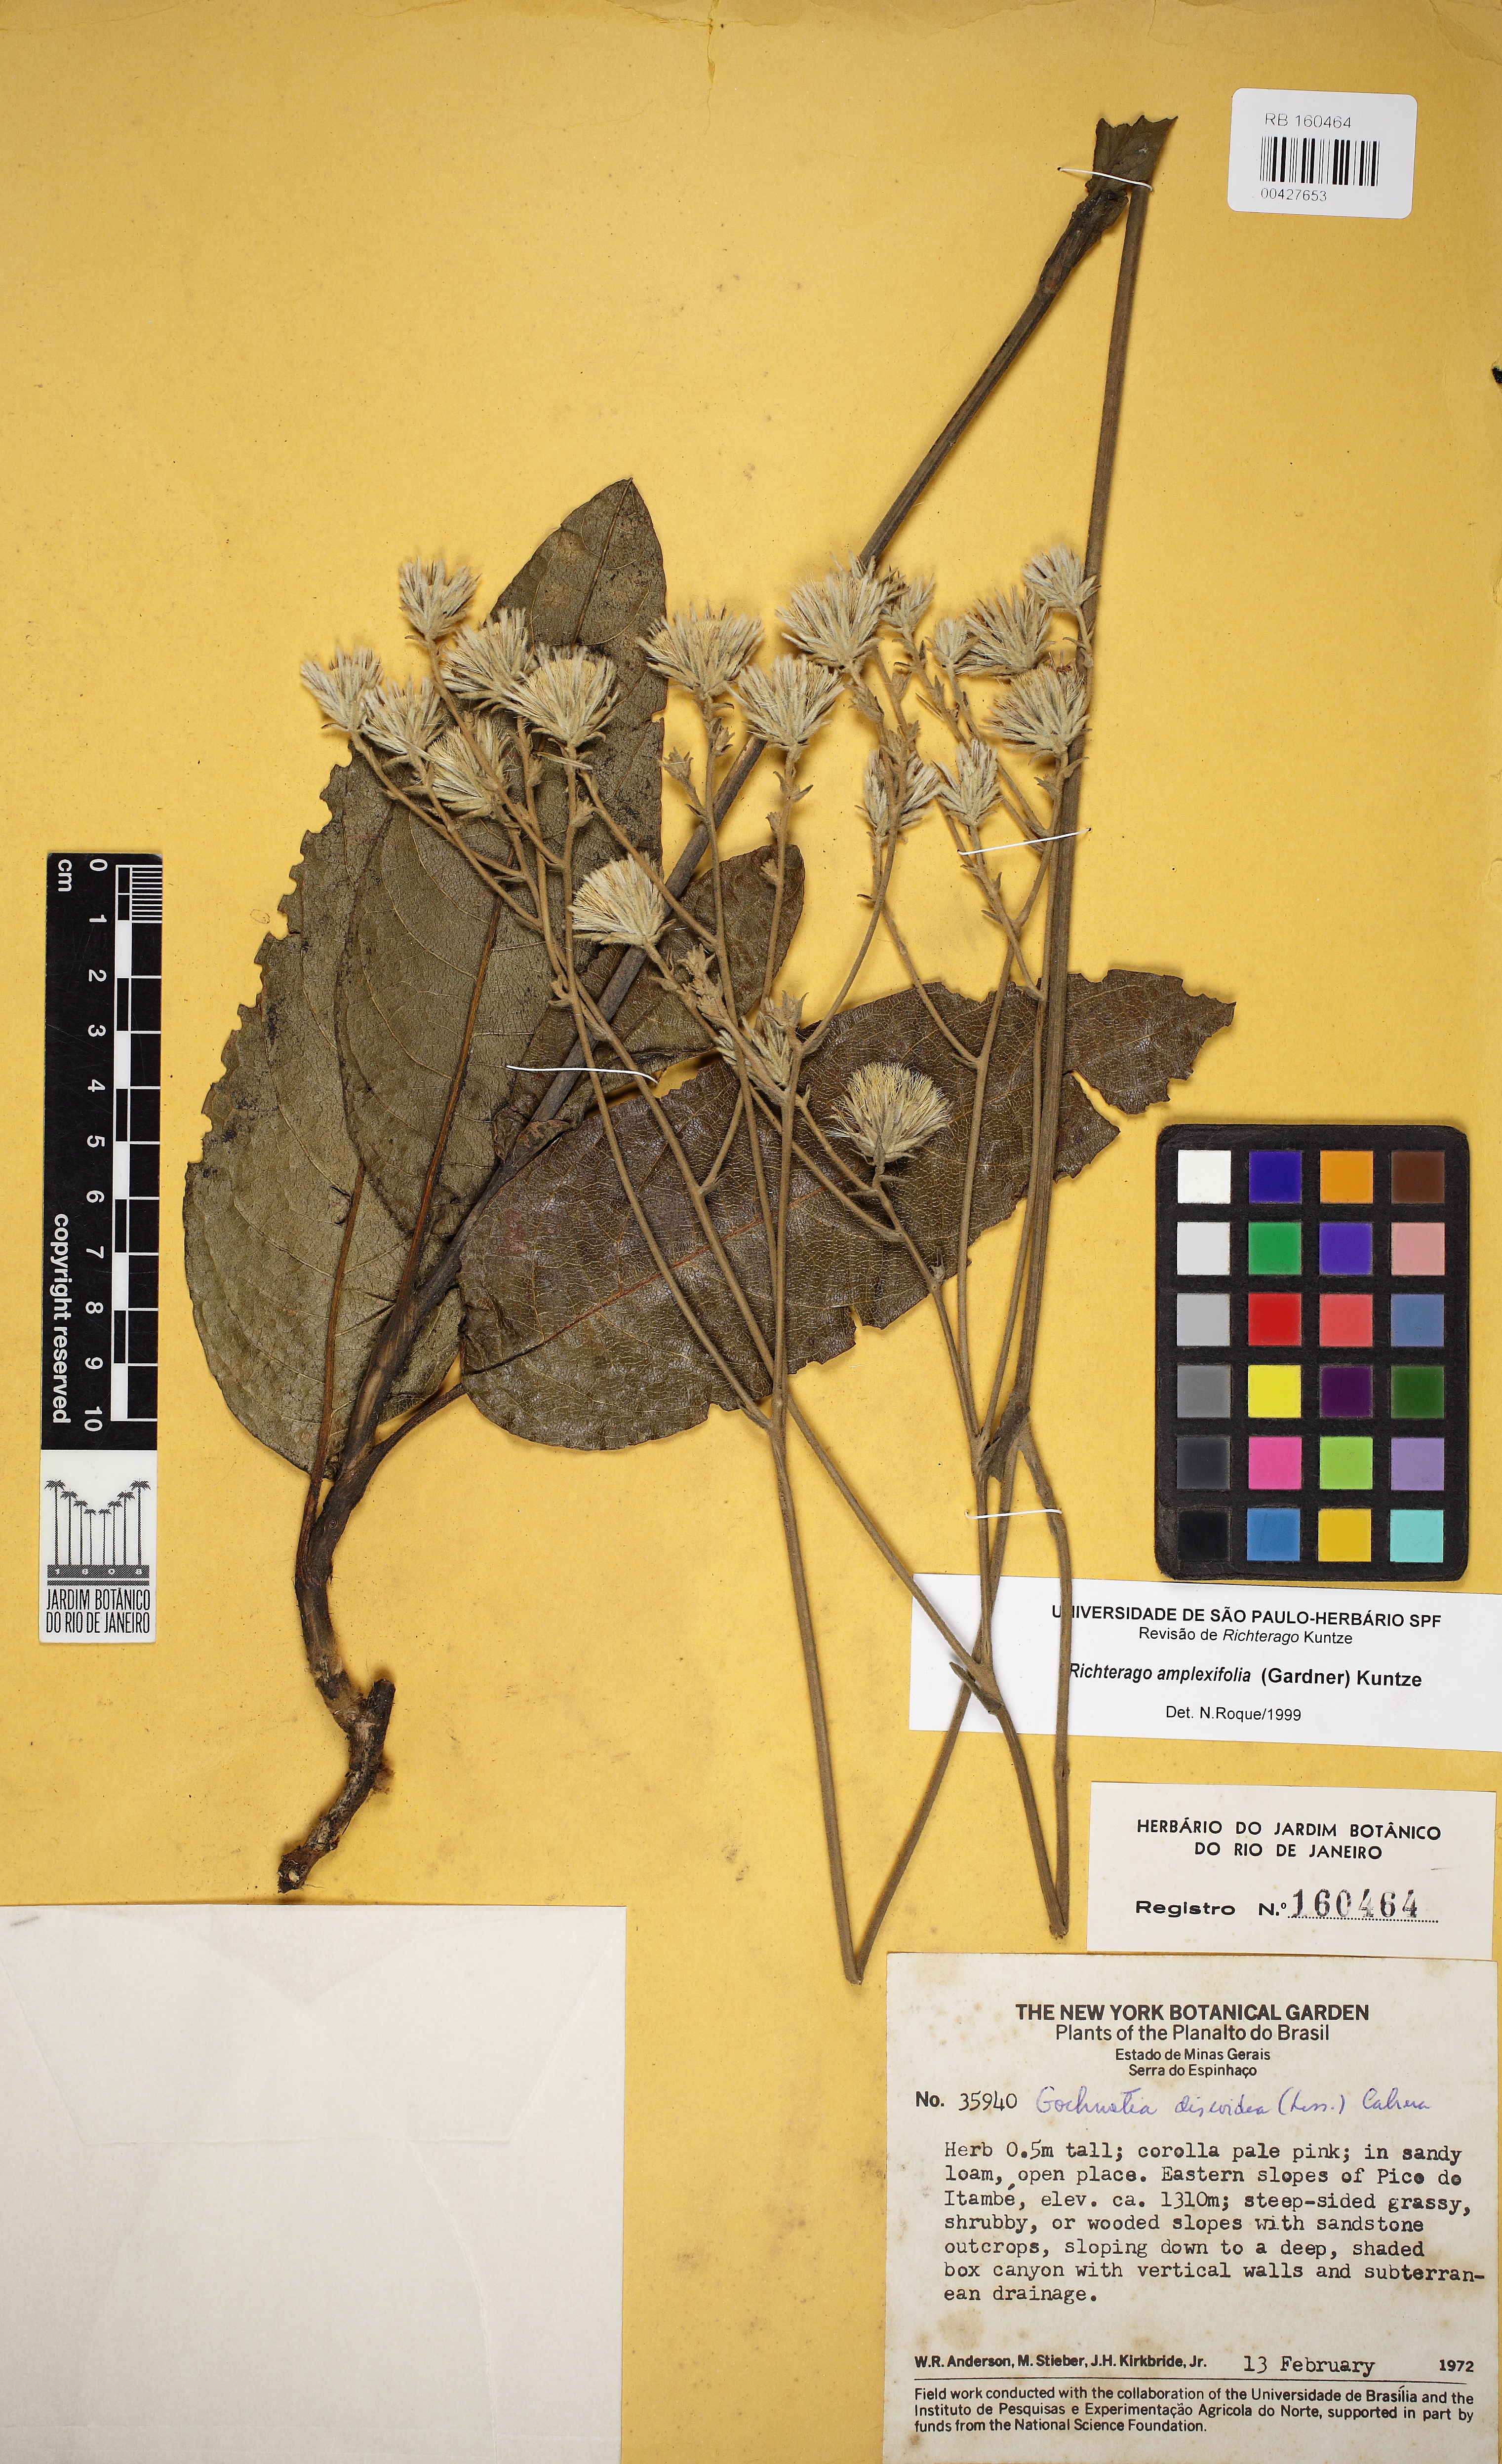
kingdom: Plantae
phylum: Tracheophyta
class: Magnoliopsida
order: Asterales
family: Asteraceae
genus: Richterago
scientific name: Richterago amplexifolia
